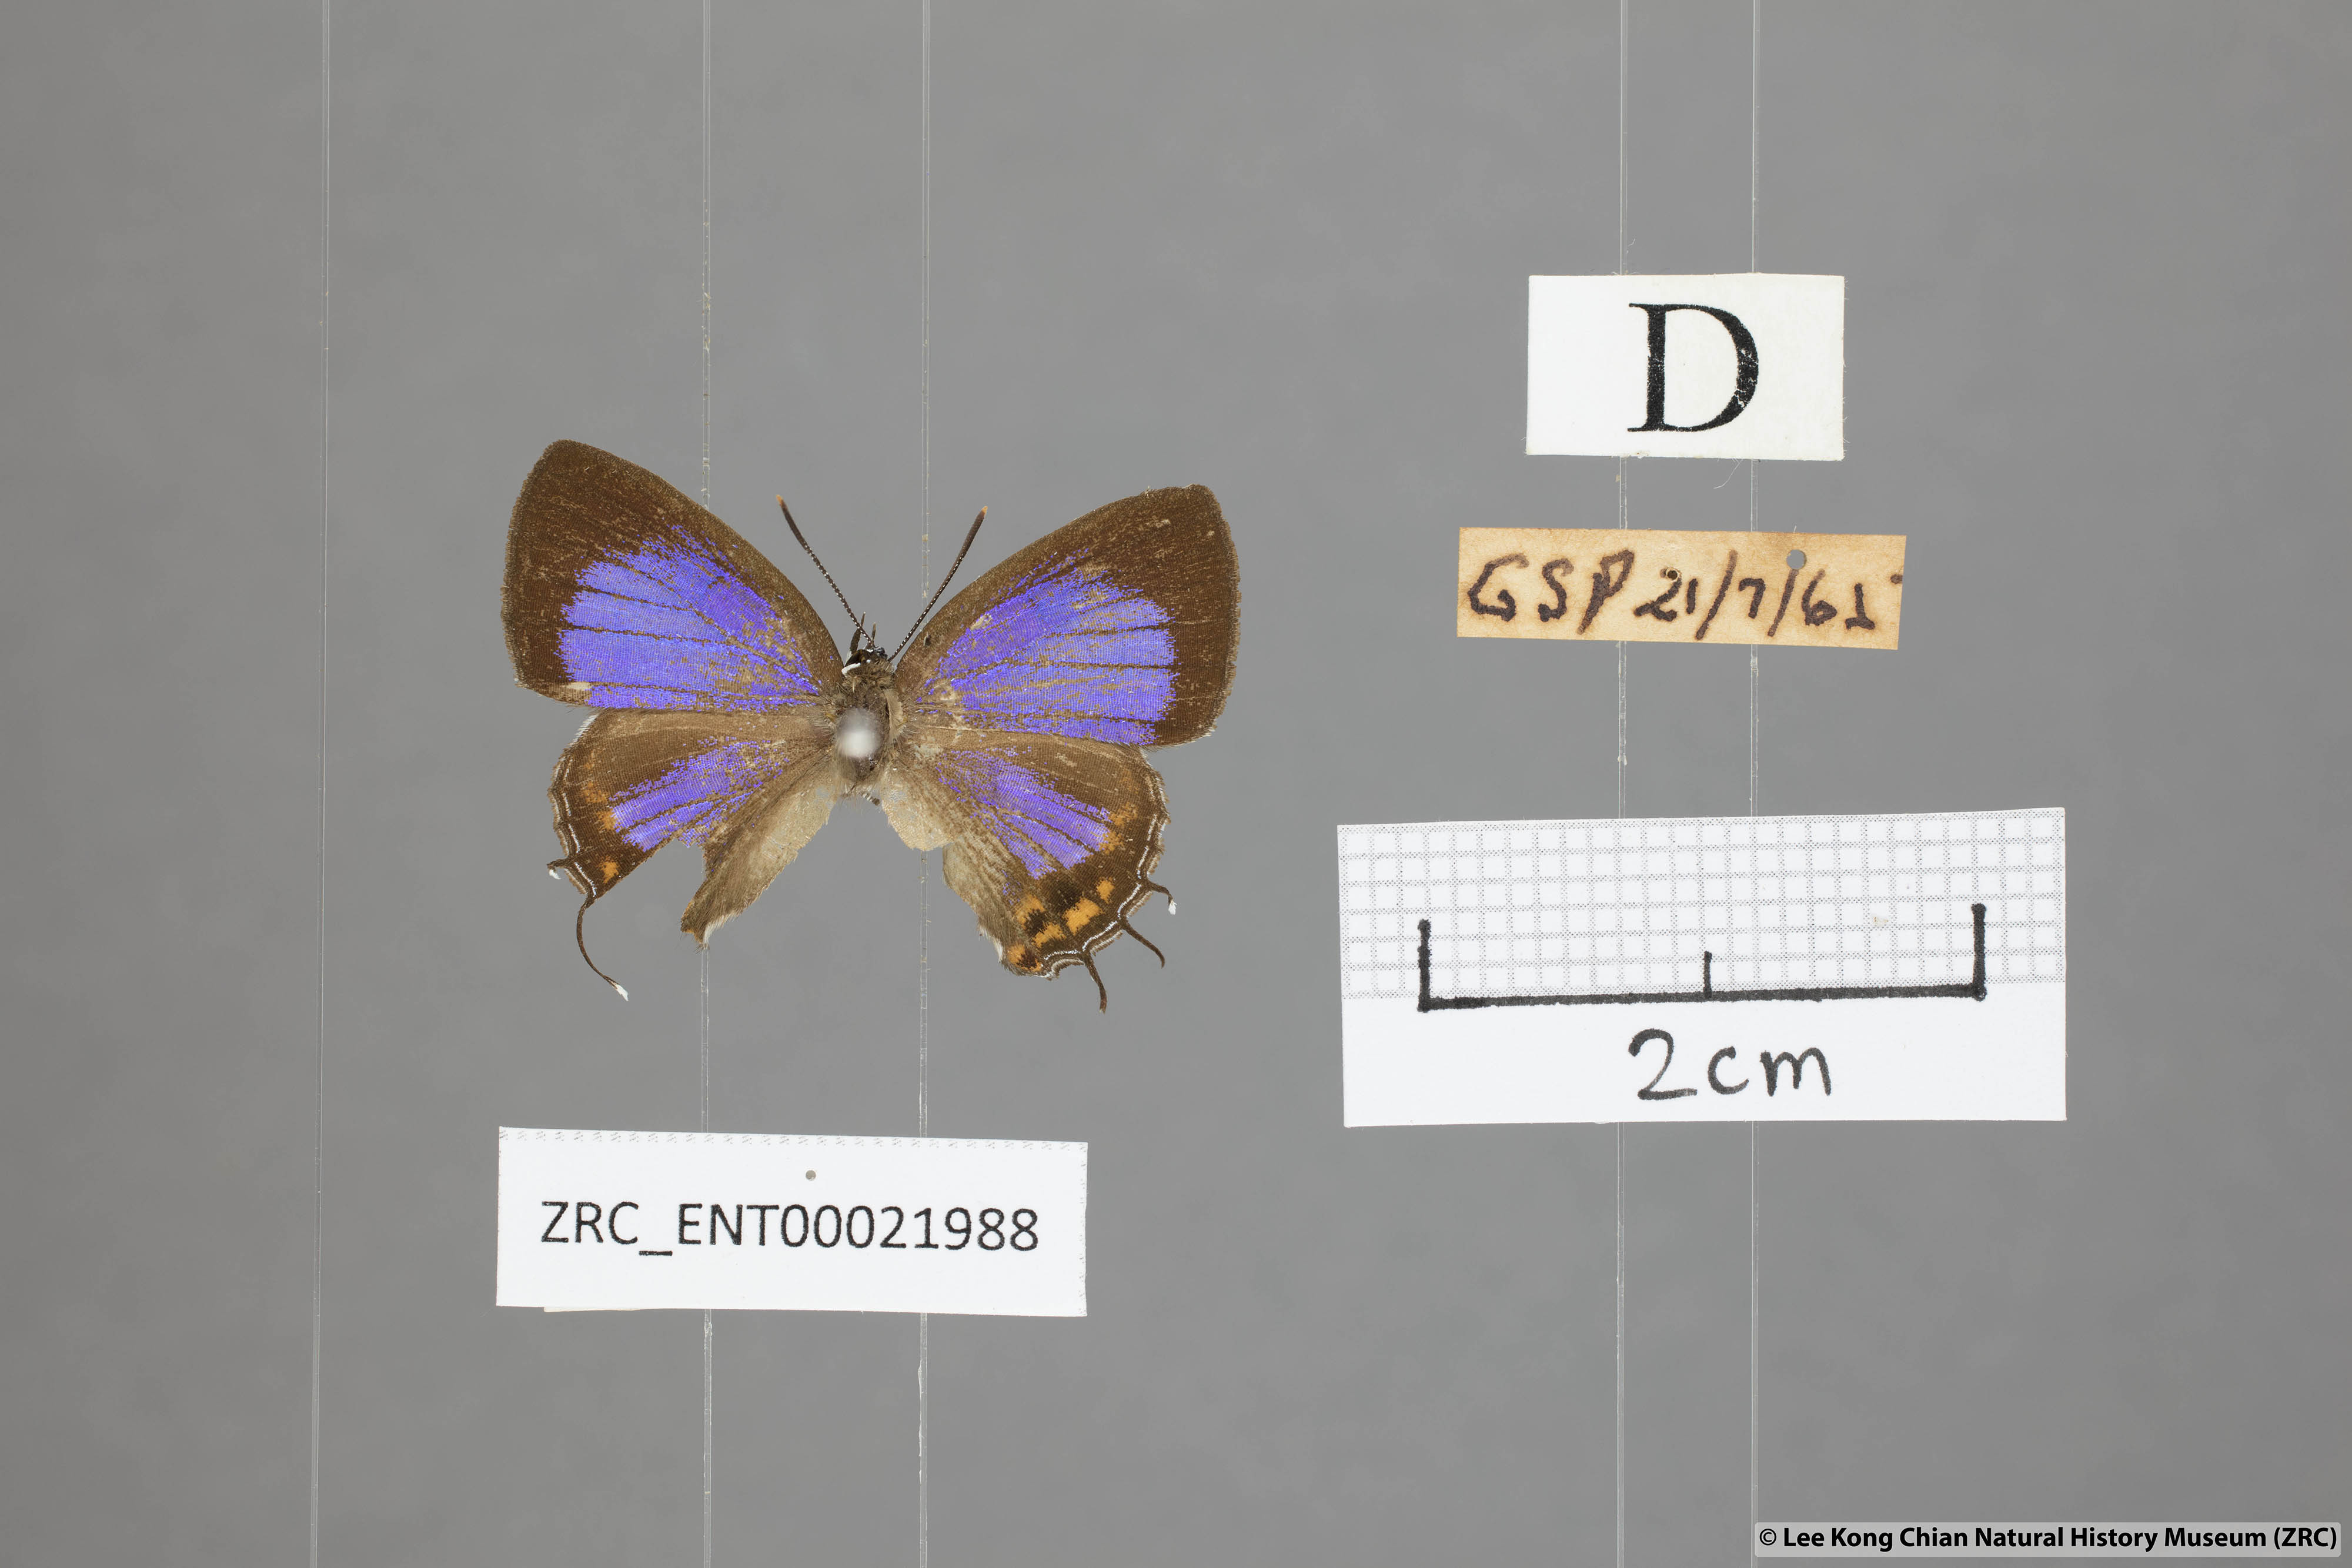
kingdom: Animalia
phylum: Arthropoda
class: Insecta
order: Lepidoptera
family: Lycaenidae
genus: Semanga
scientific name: Semanga superba
